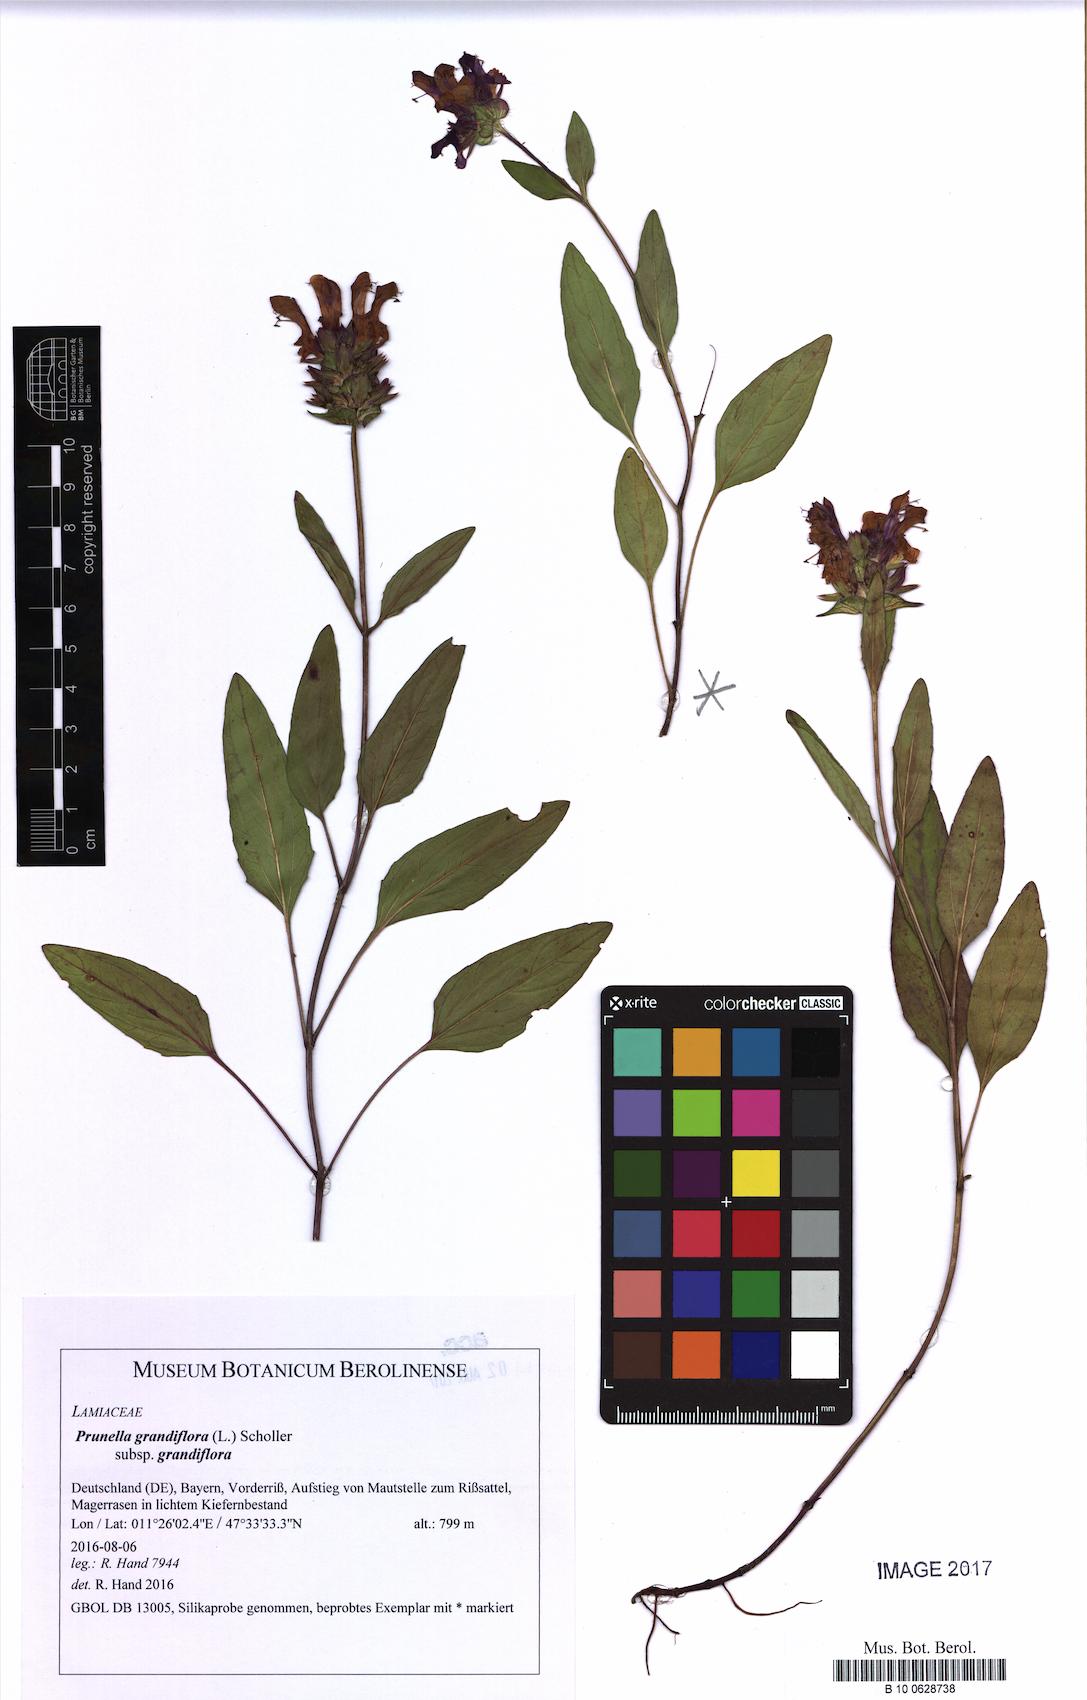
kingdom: Plantae
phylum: Tracheophyta
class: Magnoliopsida
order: Lamiales
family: Lamiaceae
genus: Prunella
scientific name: Prunella grandiflora
